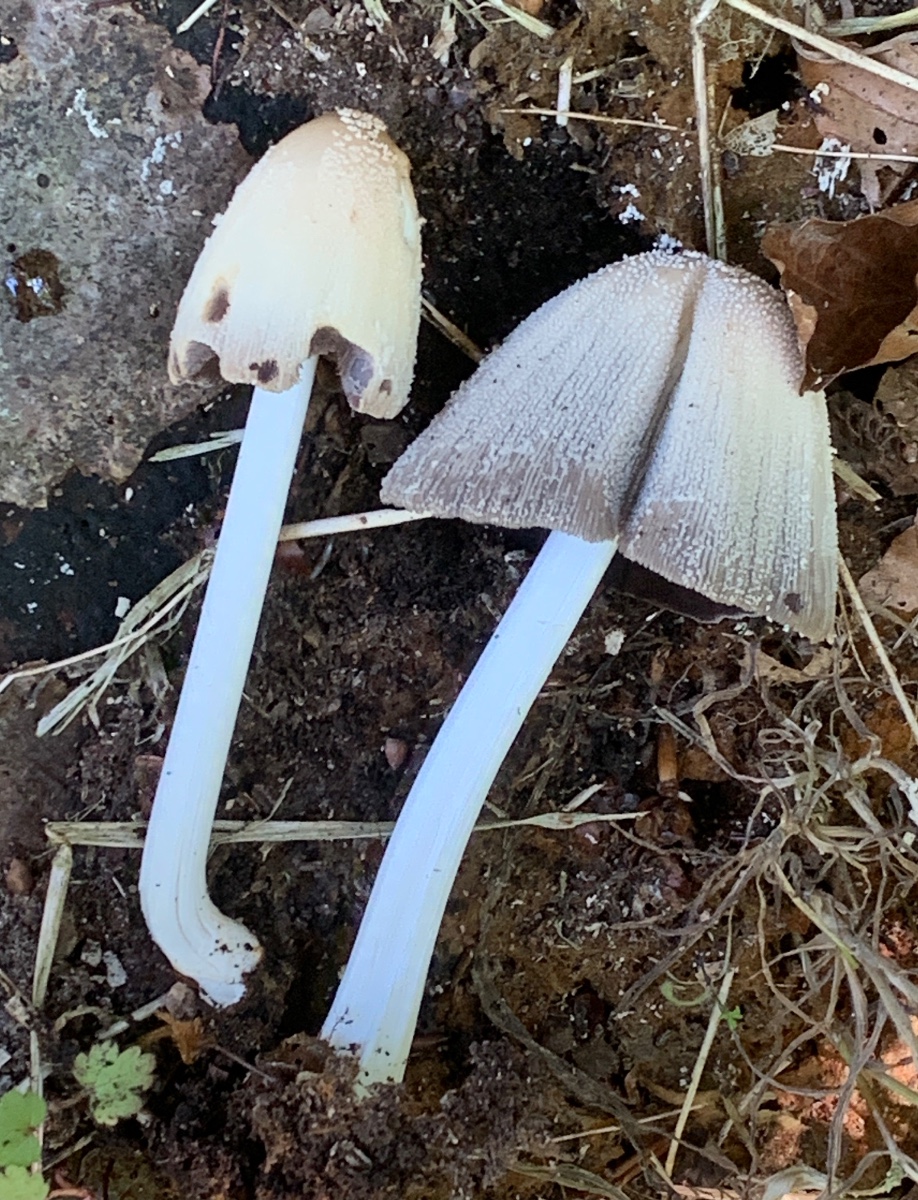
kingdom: Fungi
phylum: Basidiomycota
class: Agaricomycetes
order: Agaricales
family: Psathyrellaceae
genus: Coprinellus
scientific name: Coprinellus micaceus
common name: glimmer-blækhat
